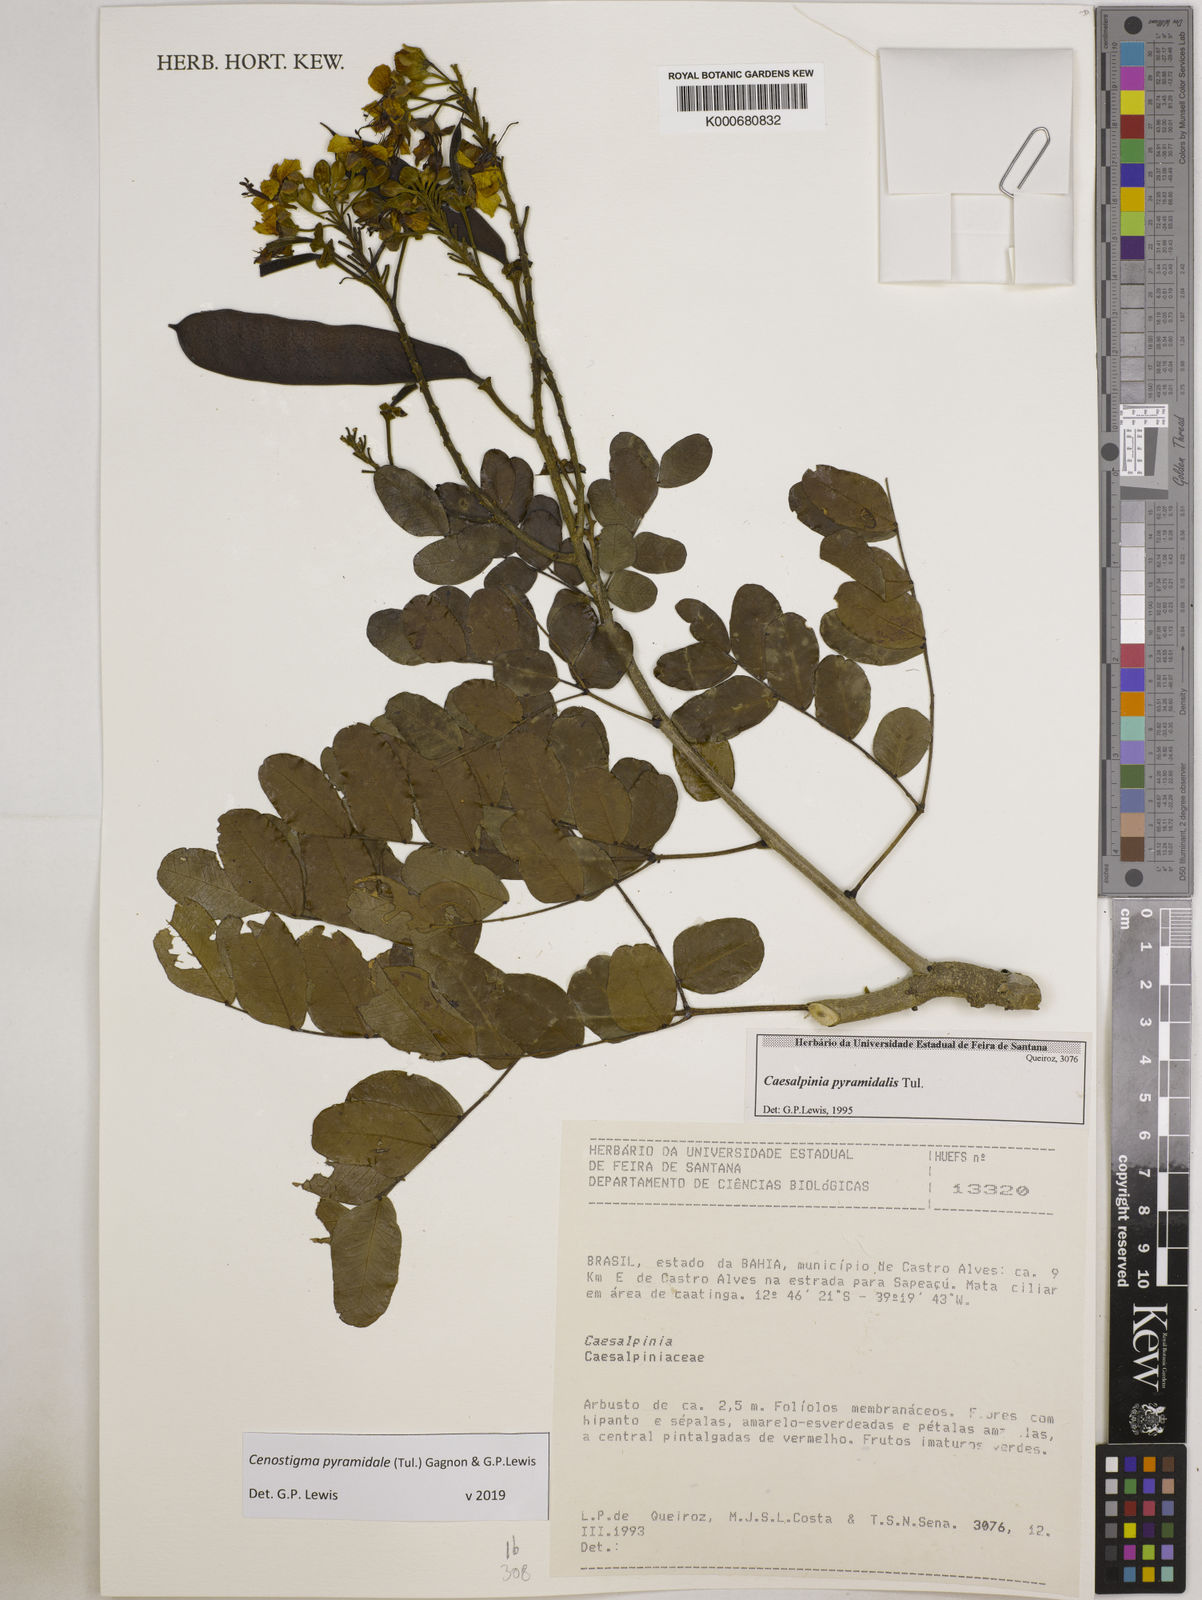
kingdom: Plantae
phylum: Tracheophyta
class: Magnoliopsida
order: Fabales
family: Fabaceae
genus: Caesalpinia
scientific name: Caesalpinia
